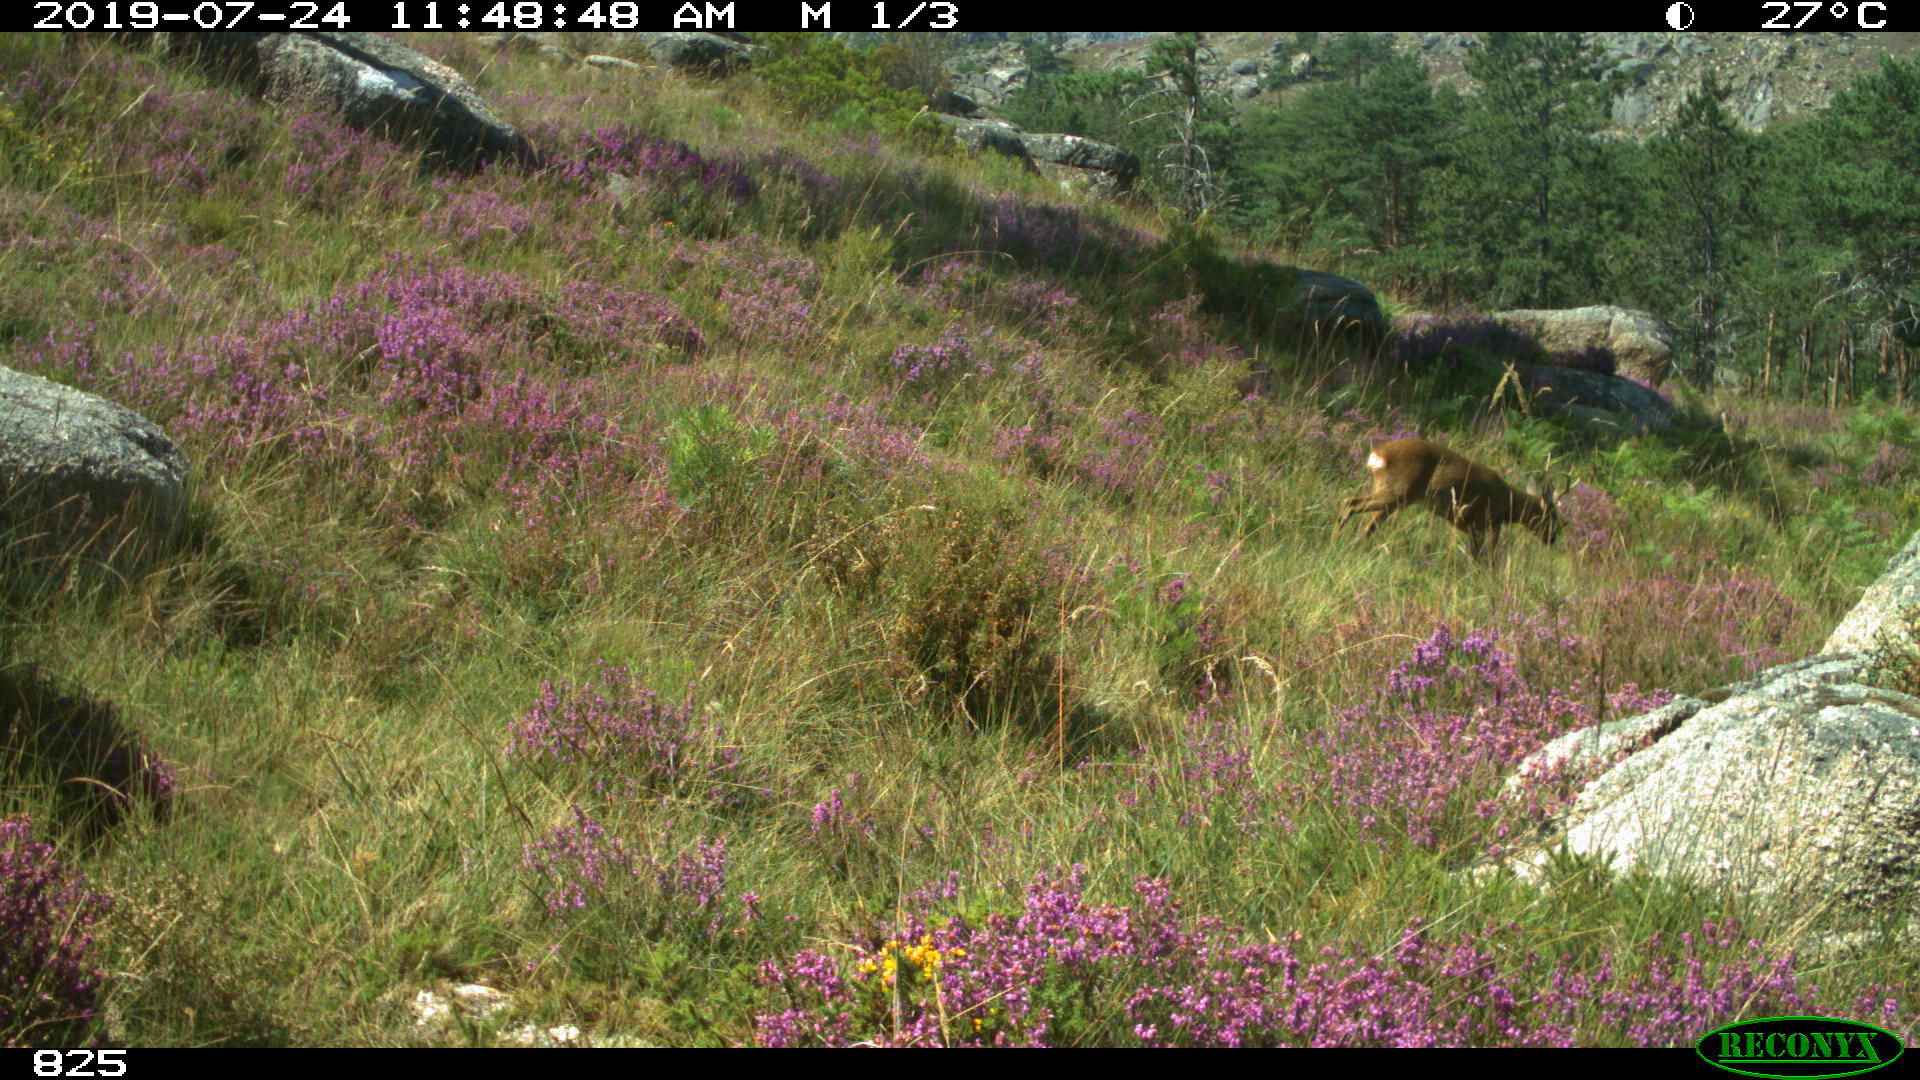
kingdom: Animalia
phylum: Chordata
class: Mammalia
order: Artiodactyla
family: Cervidae
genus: Capreolus
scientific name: Capreolus capreolus
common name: Western roe deer
